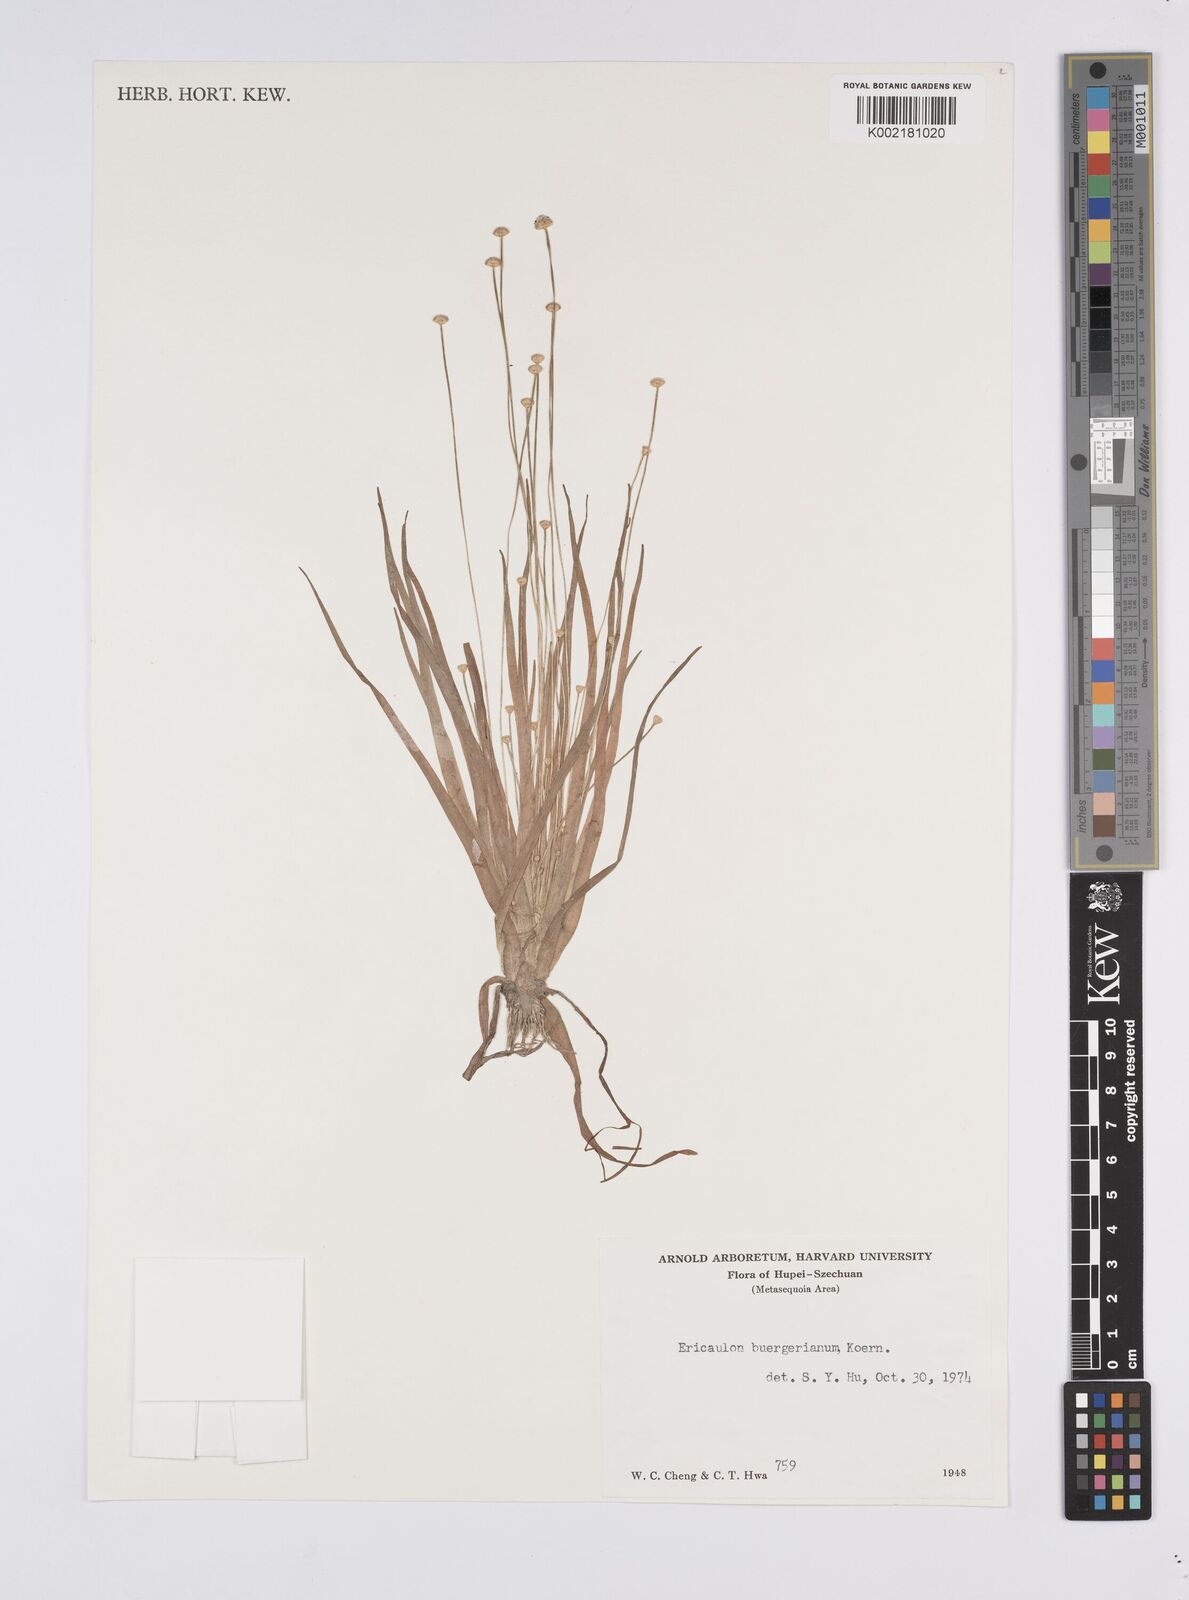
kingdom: Plantae
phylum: Tracheophyta
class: Liliopsida
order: Poales
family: Eriocaulaceae
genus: Eriocaulon
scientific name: Eriocaulon buergerianum
